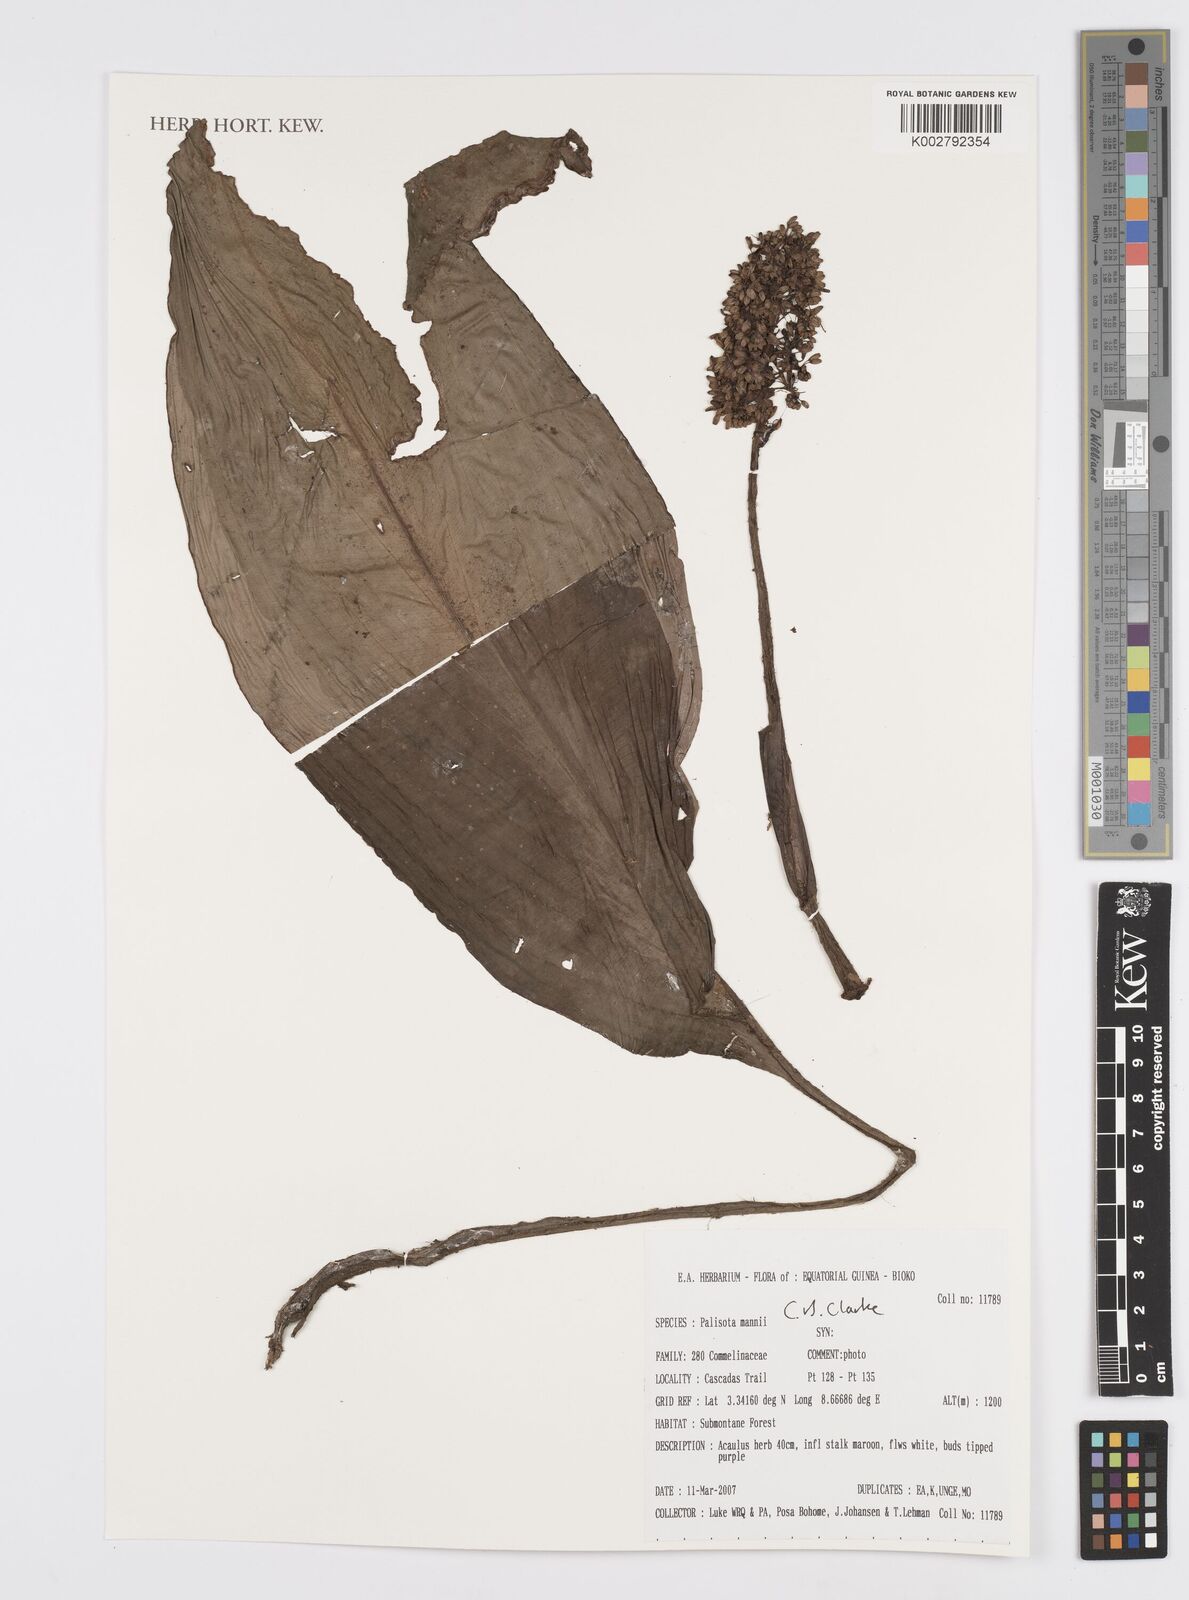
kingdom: Plantae
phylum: Tracheophyta
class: Liliopsida
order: Commelinales
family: Commelinaceae
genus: Palisota
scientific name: Palisota mannii
